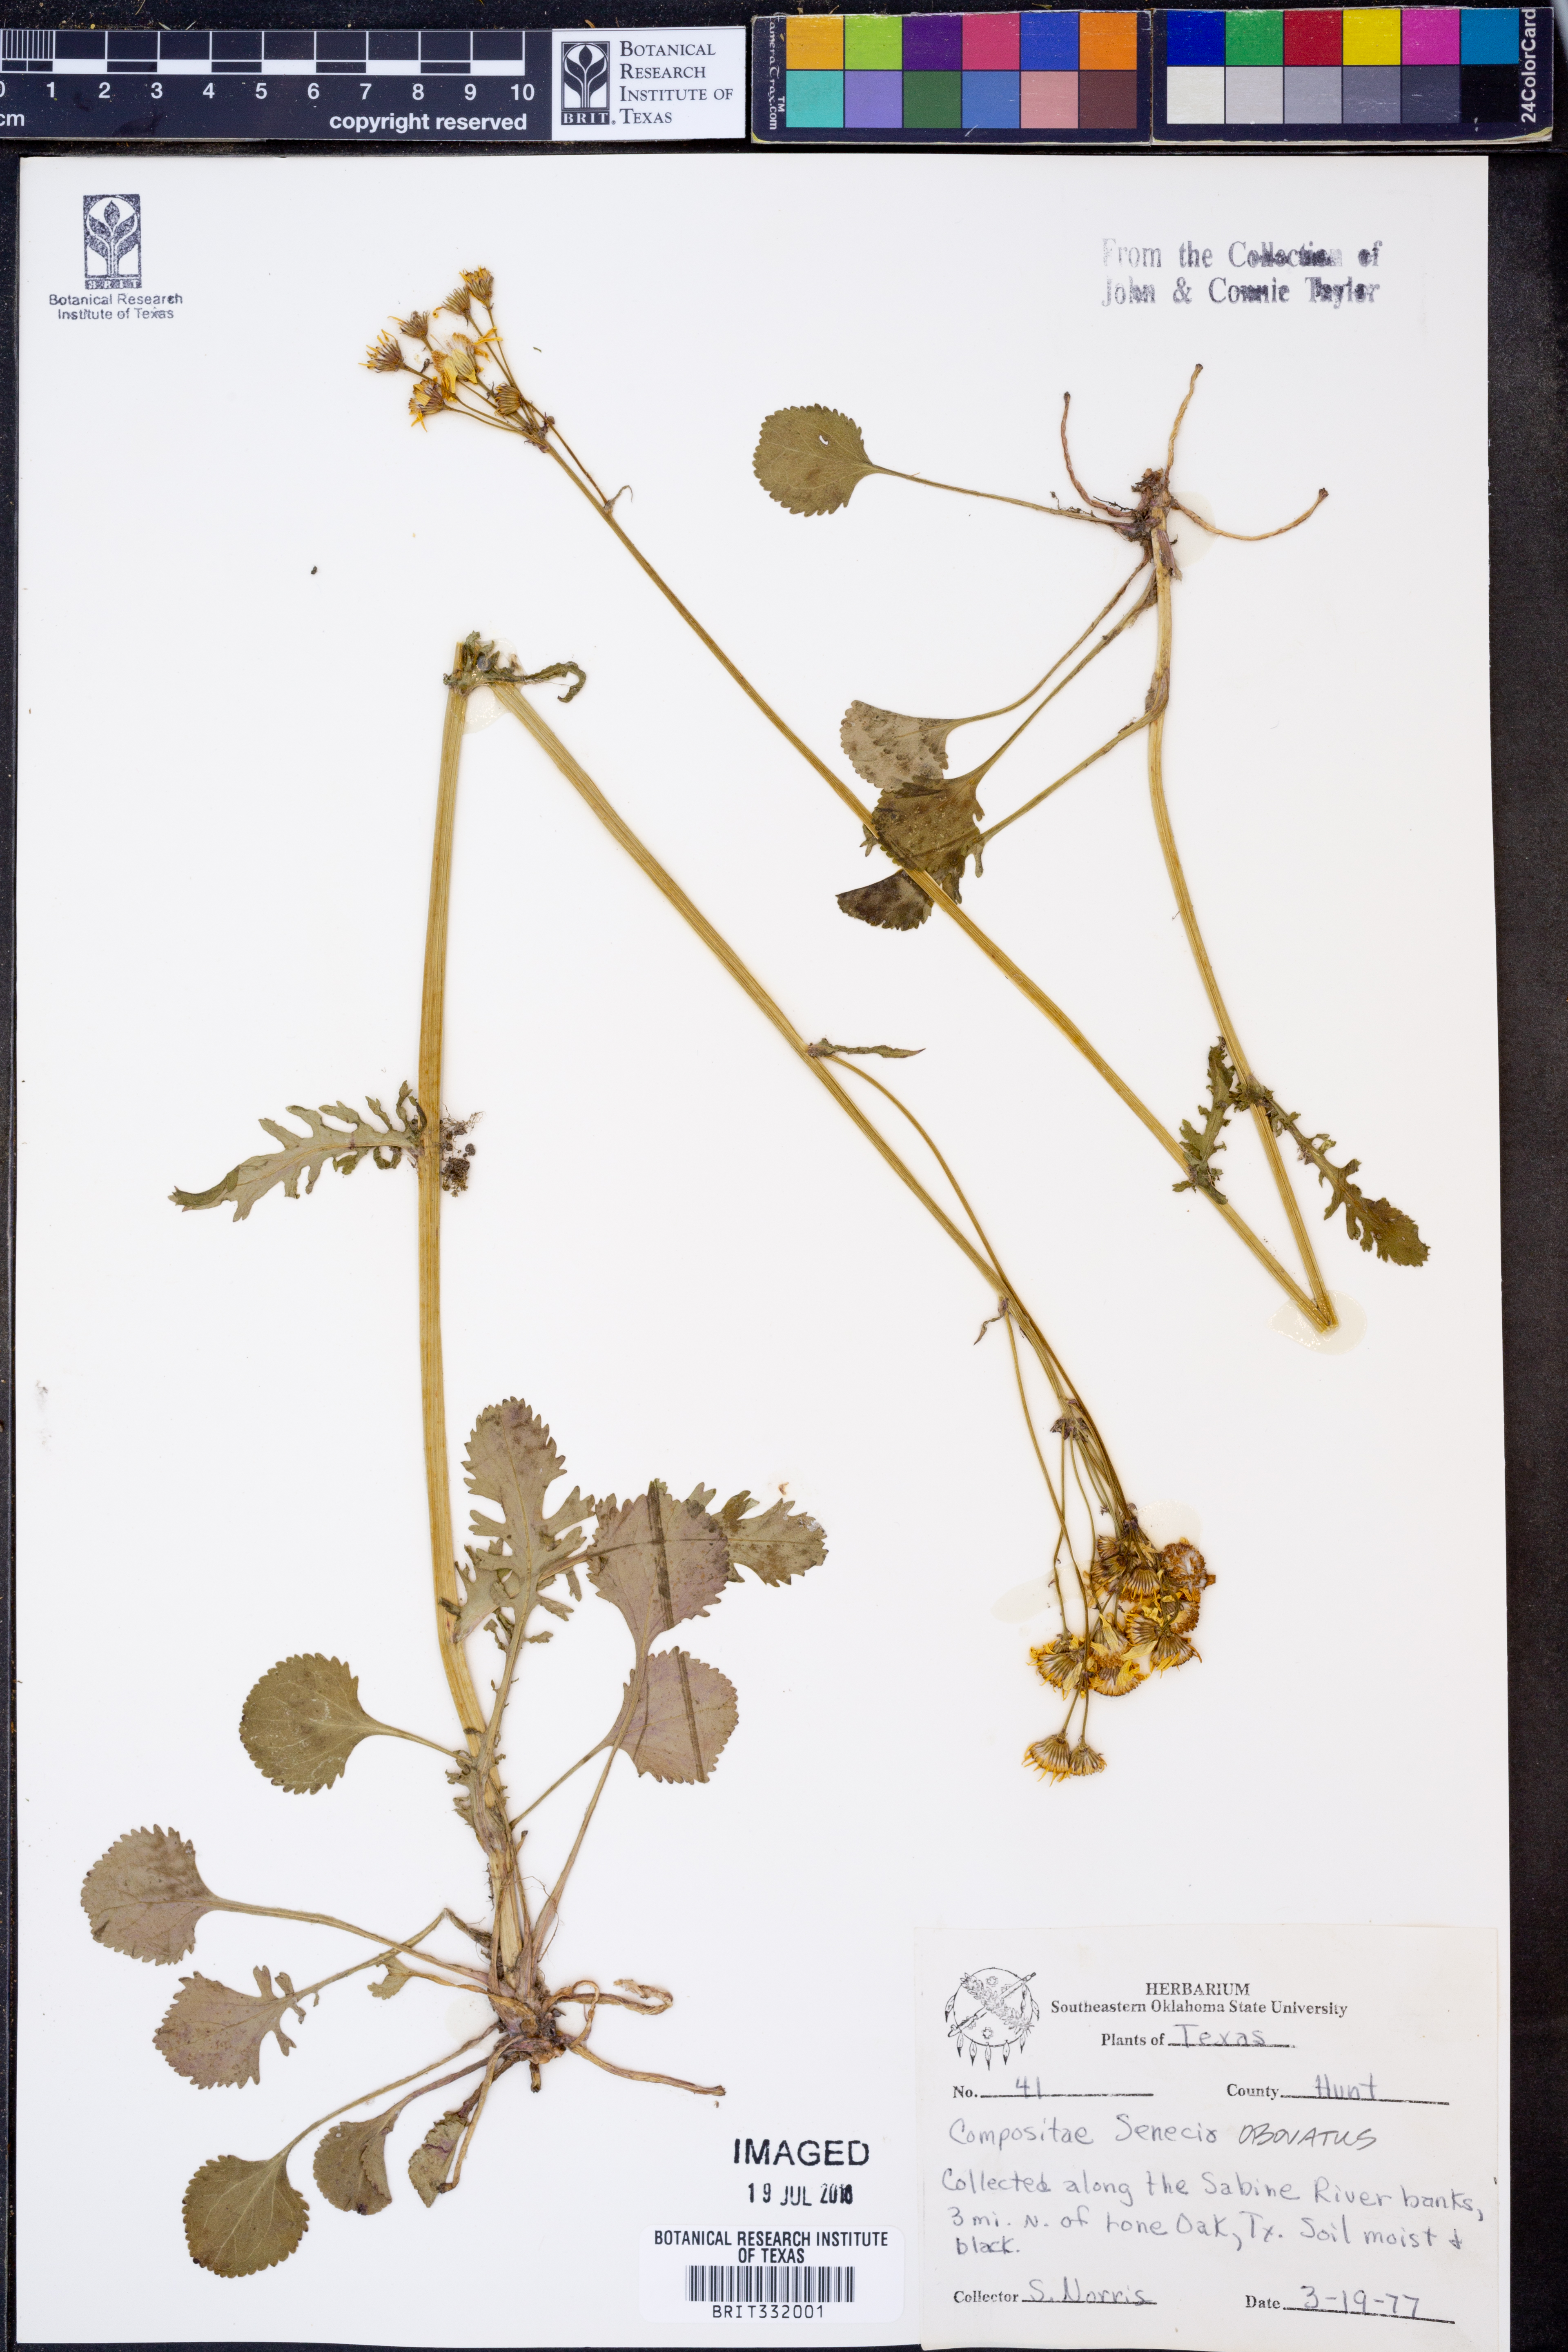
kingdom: Plantae
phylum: Tracheophyta
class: Magnoliopsida
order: Asterales
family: Asteraceae
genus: Senecio
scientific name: Senecio provincialis
